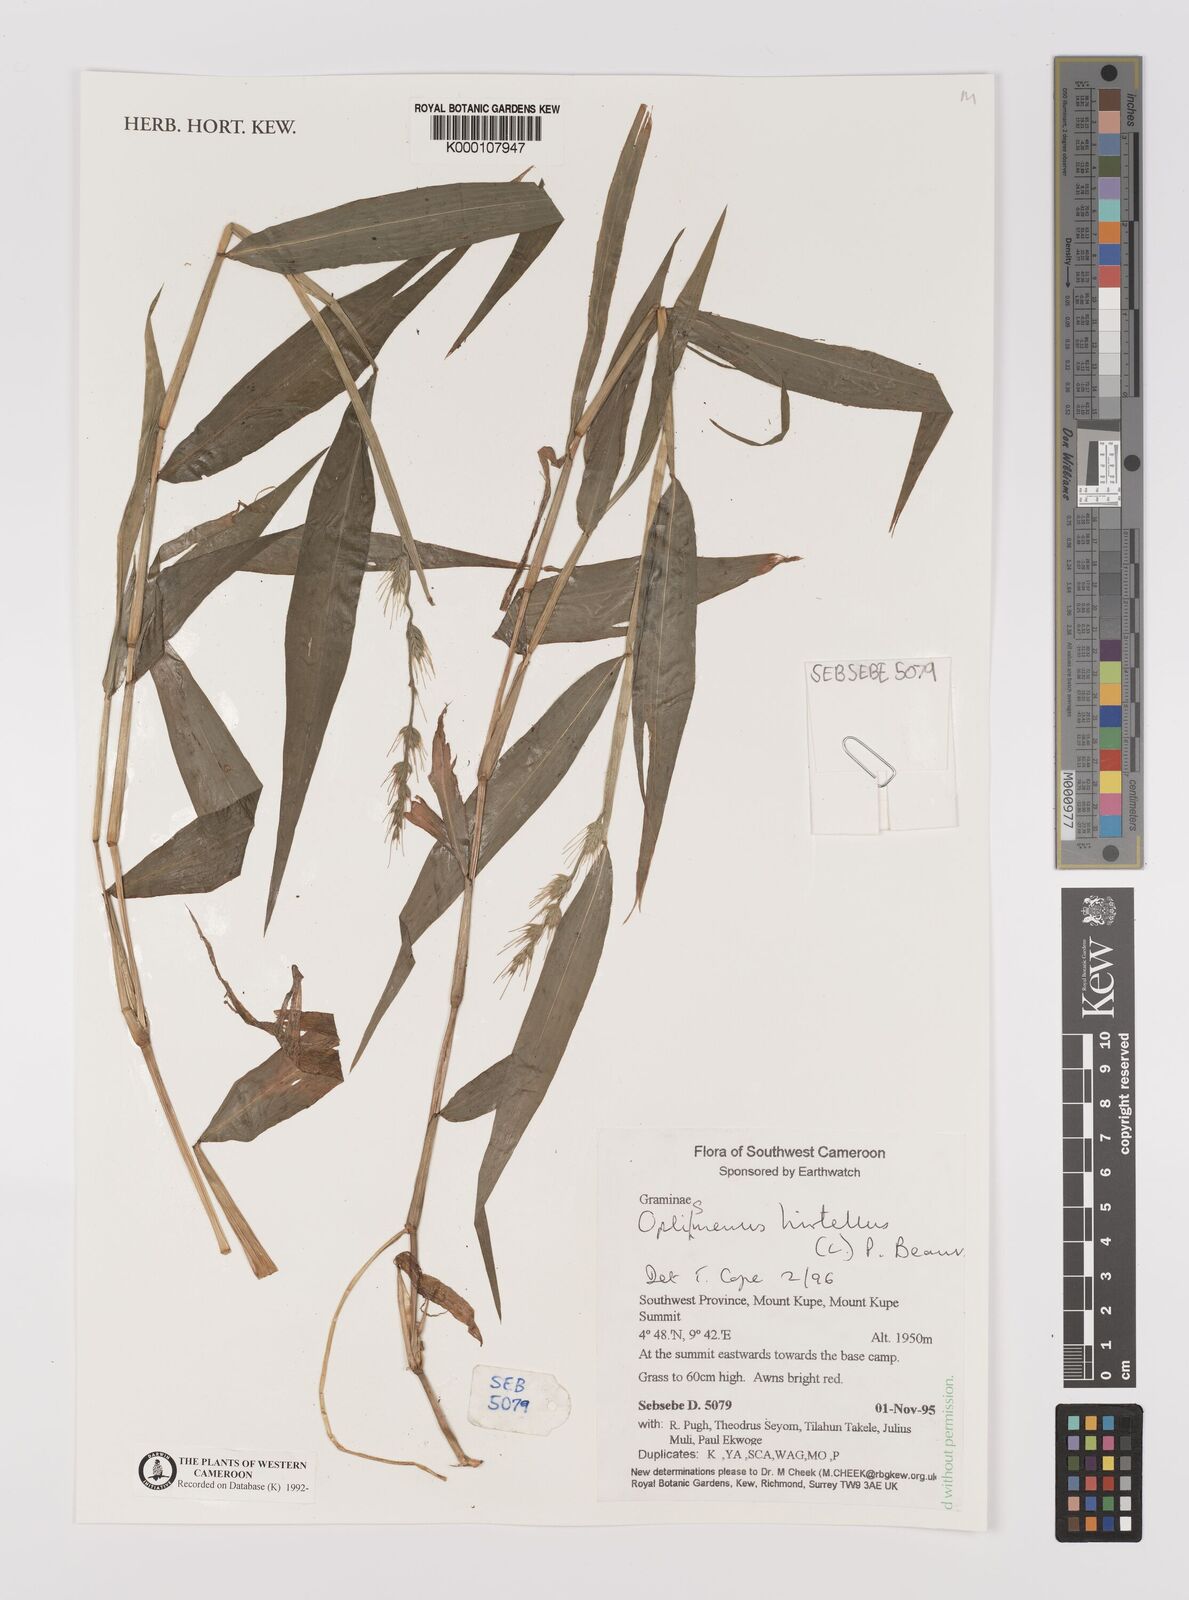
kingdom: Plantae
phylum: Tracheophyta
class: Liliopsida
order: Poales
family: Poaceae
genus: Oplismenus
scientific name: Oplismenus hirtellus
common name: Basketgrass
